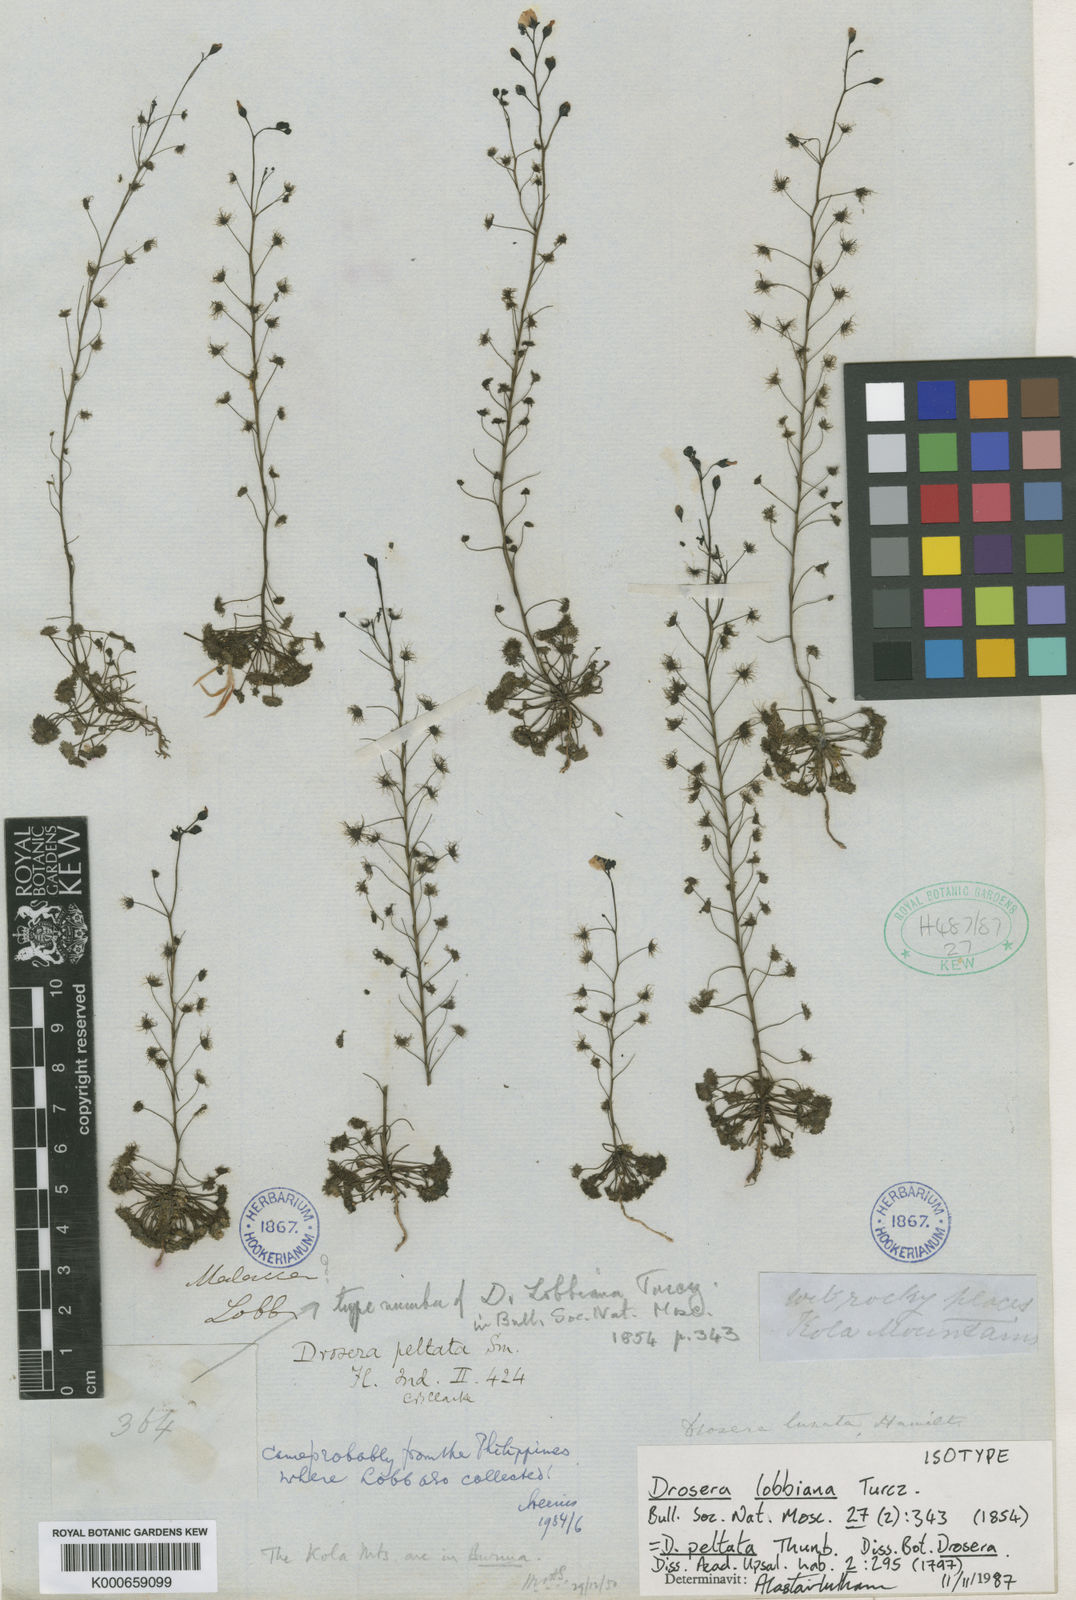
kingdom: Plantae
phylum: Tracheophyta
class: Magnoliopsida
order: Caryophyllales
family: Droseraceae
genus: Drosera
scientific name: Drosera peltata
